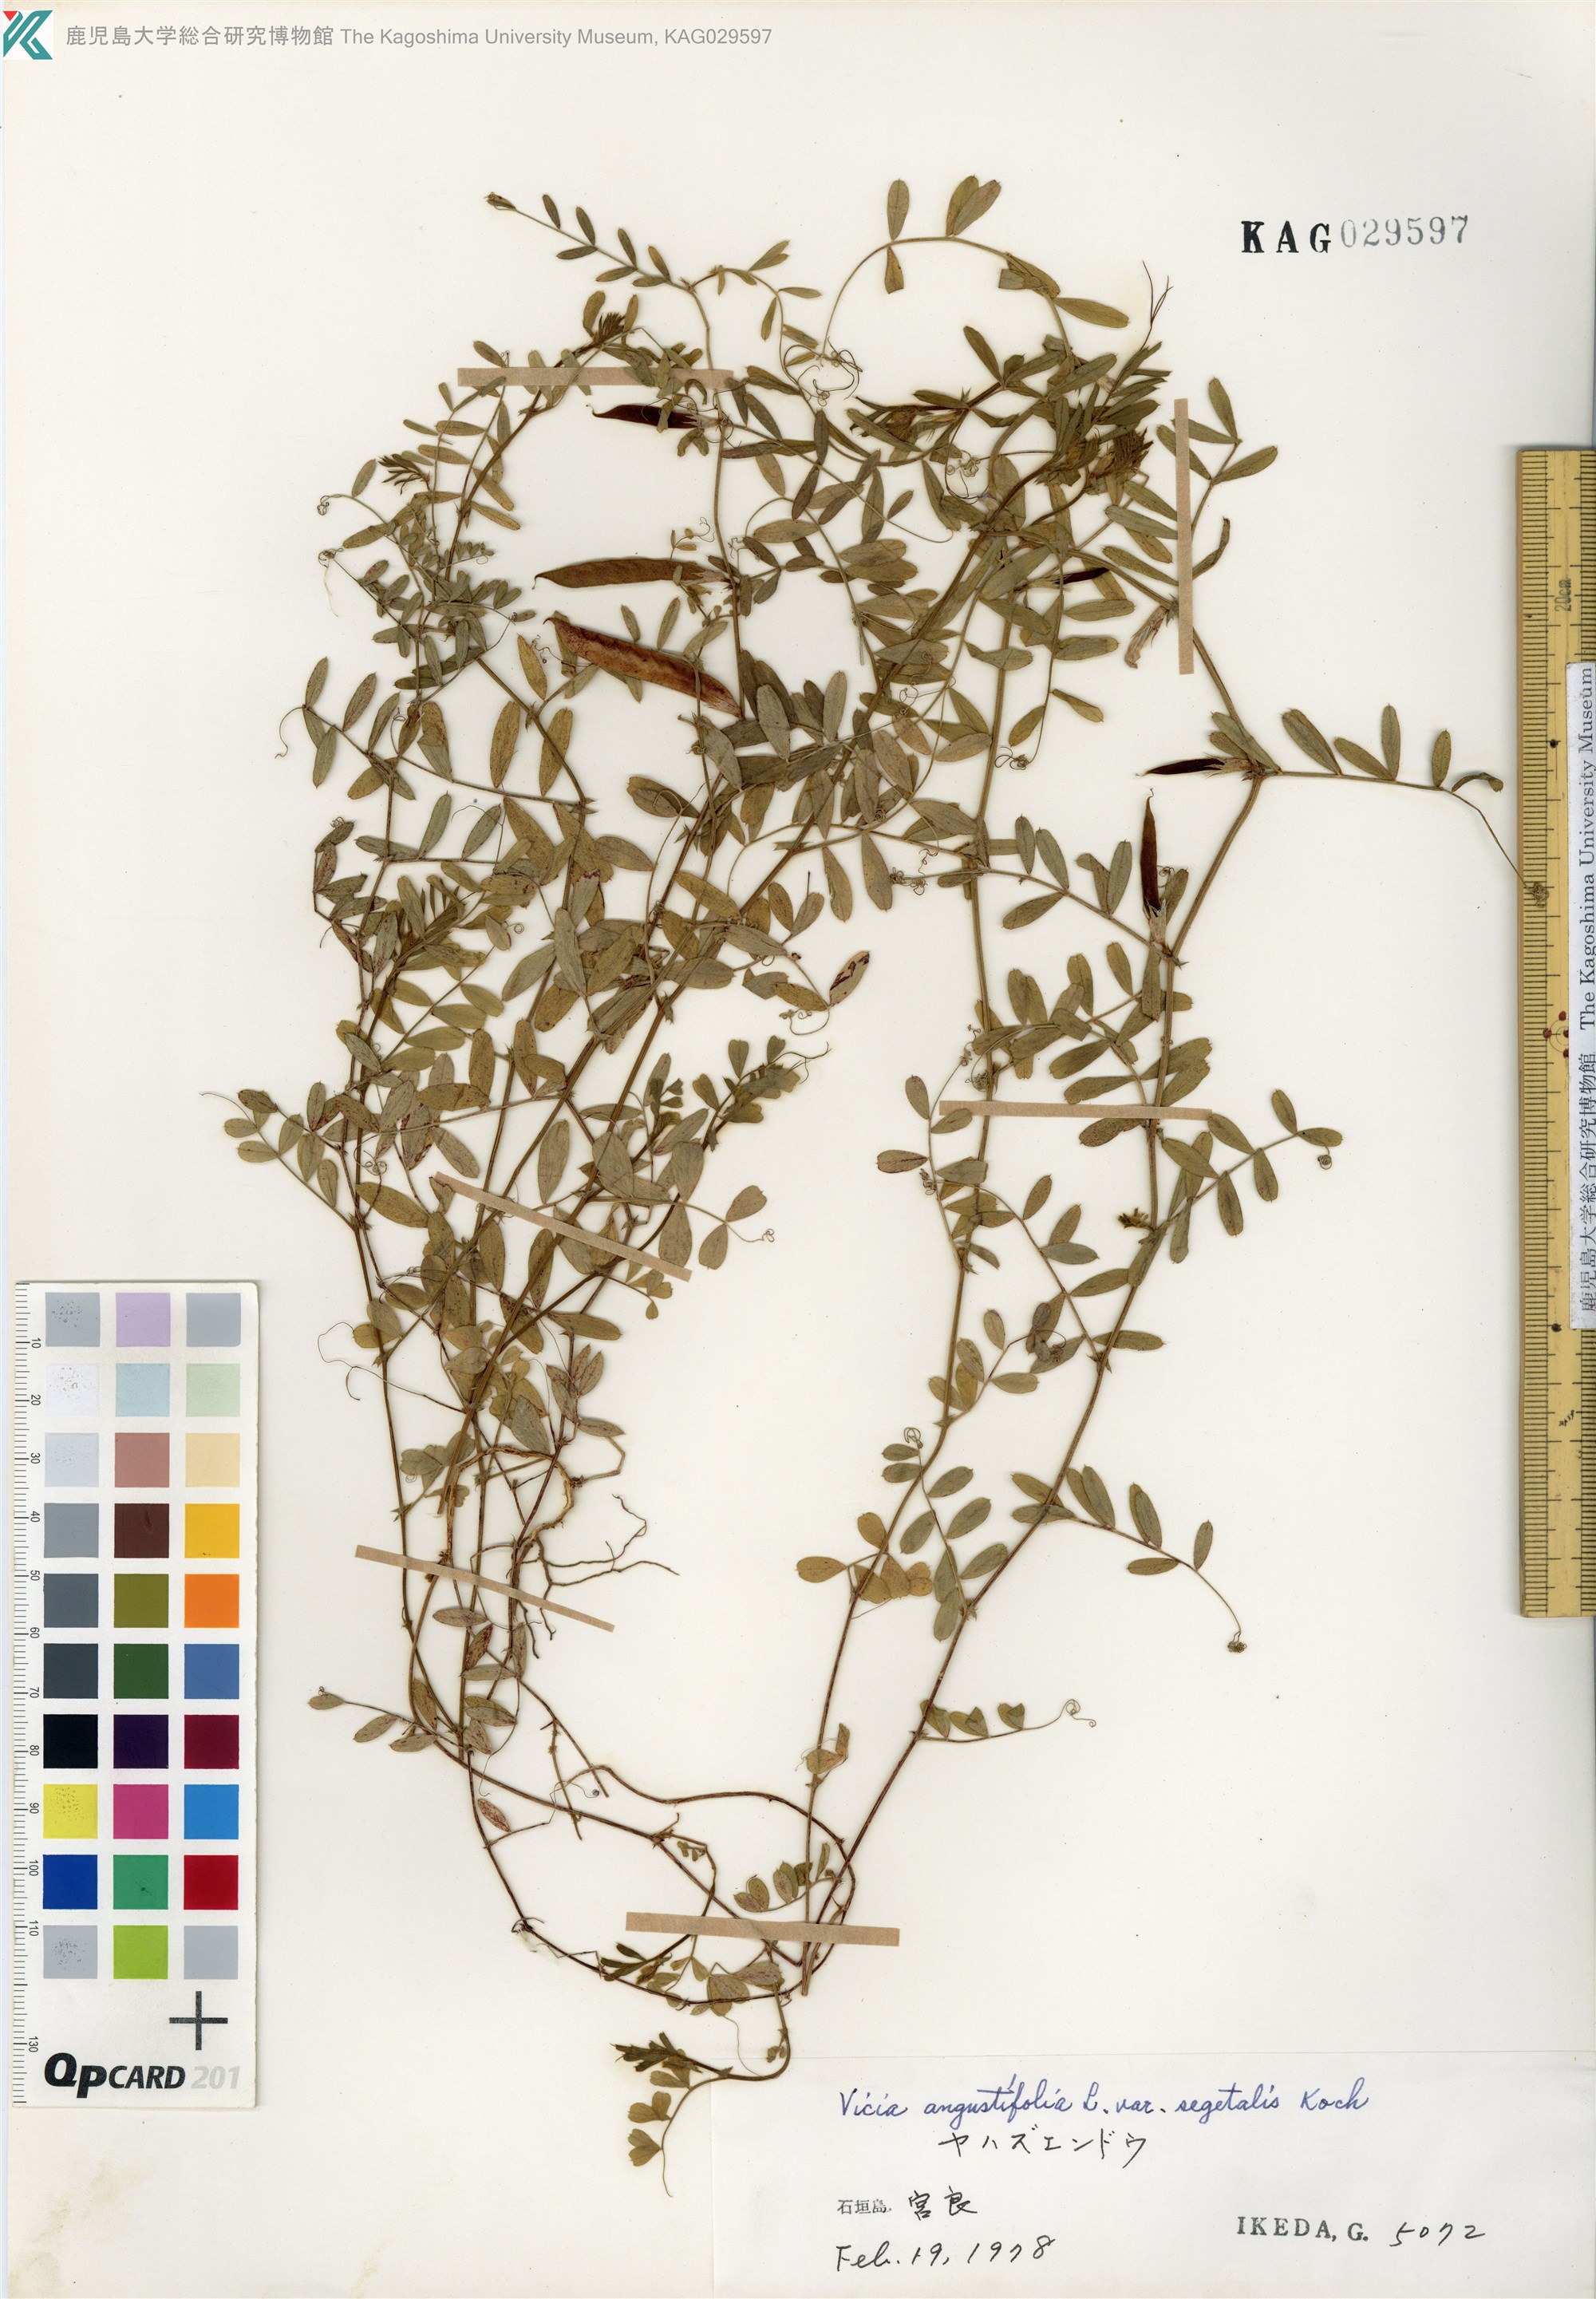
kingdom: Plantae
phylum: Tracheophyta
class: Magnoliopsida
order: Fabales
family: Fabaceae
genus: Vicia
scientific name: Vicia sativa
